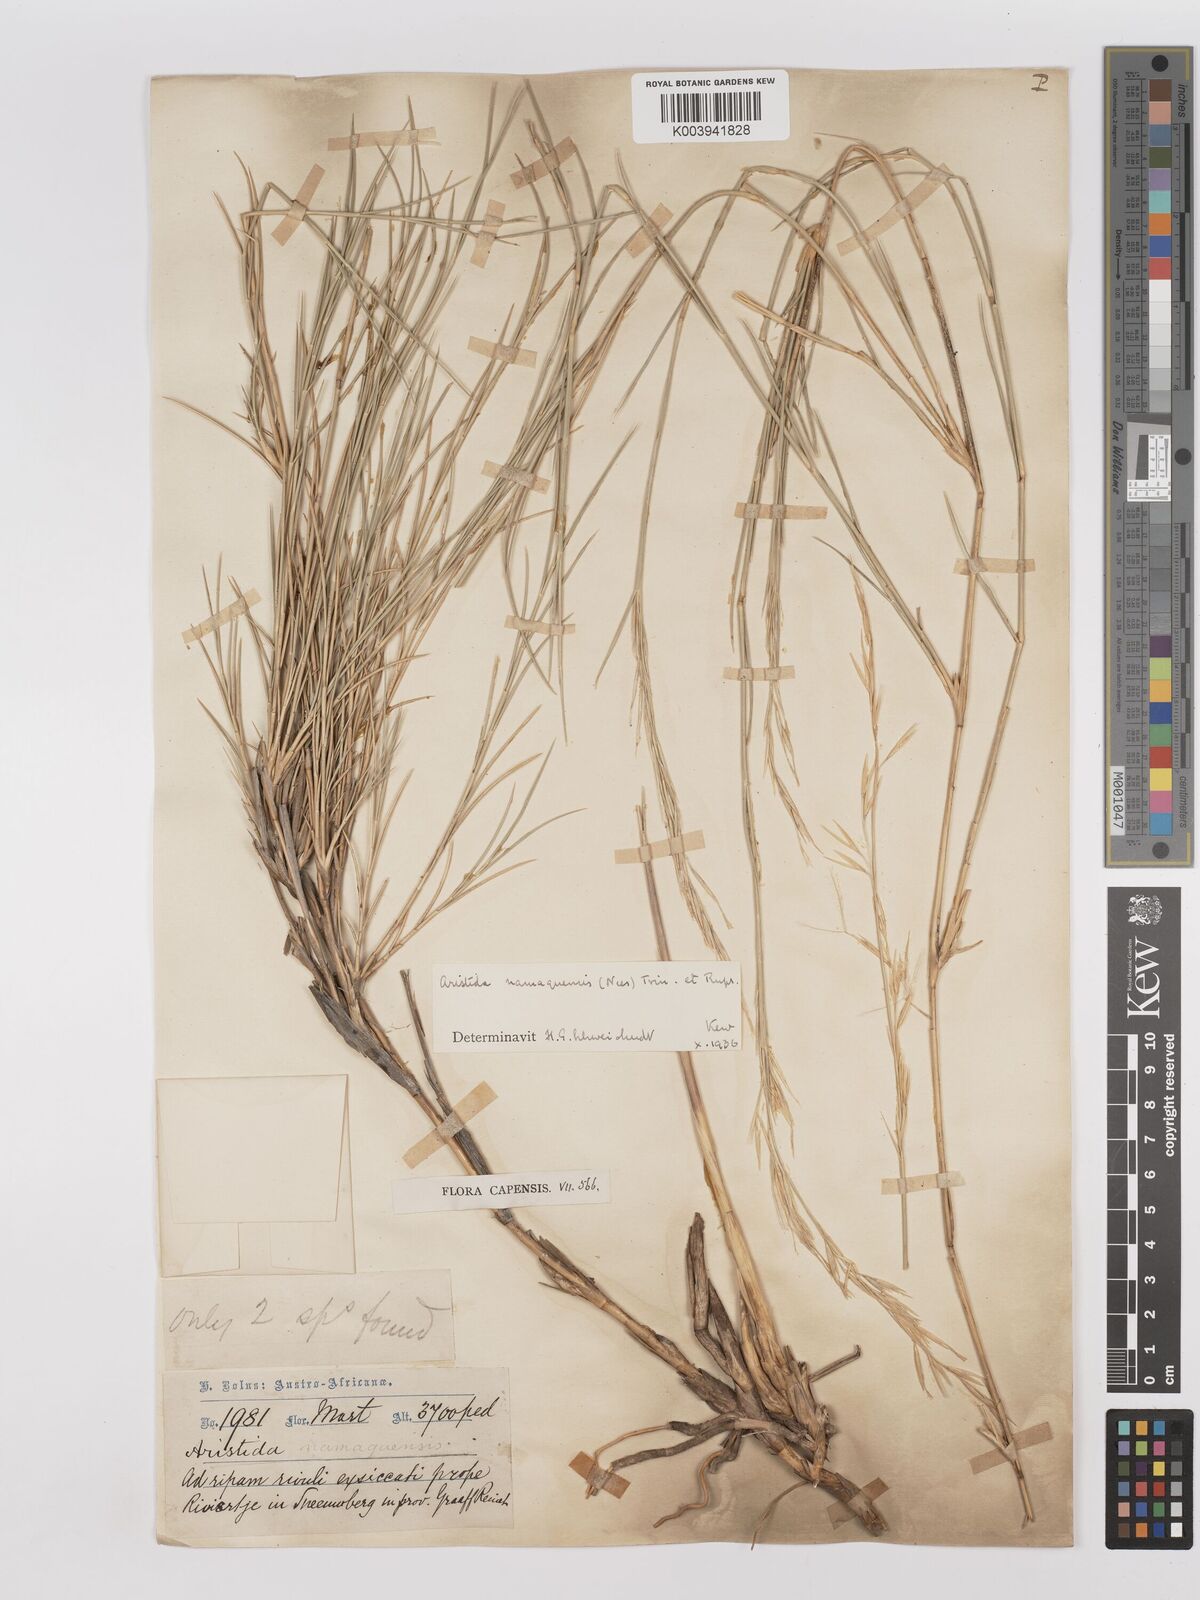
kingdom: Plantae
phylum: Tracheophyta
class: Liliopsida
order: Poales
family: Poaceae
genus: Stipagrostis
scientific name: Stipagrostis namaquensis
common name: River bushman grass
